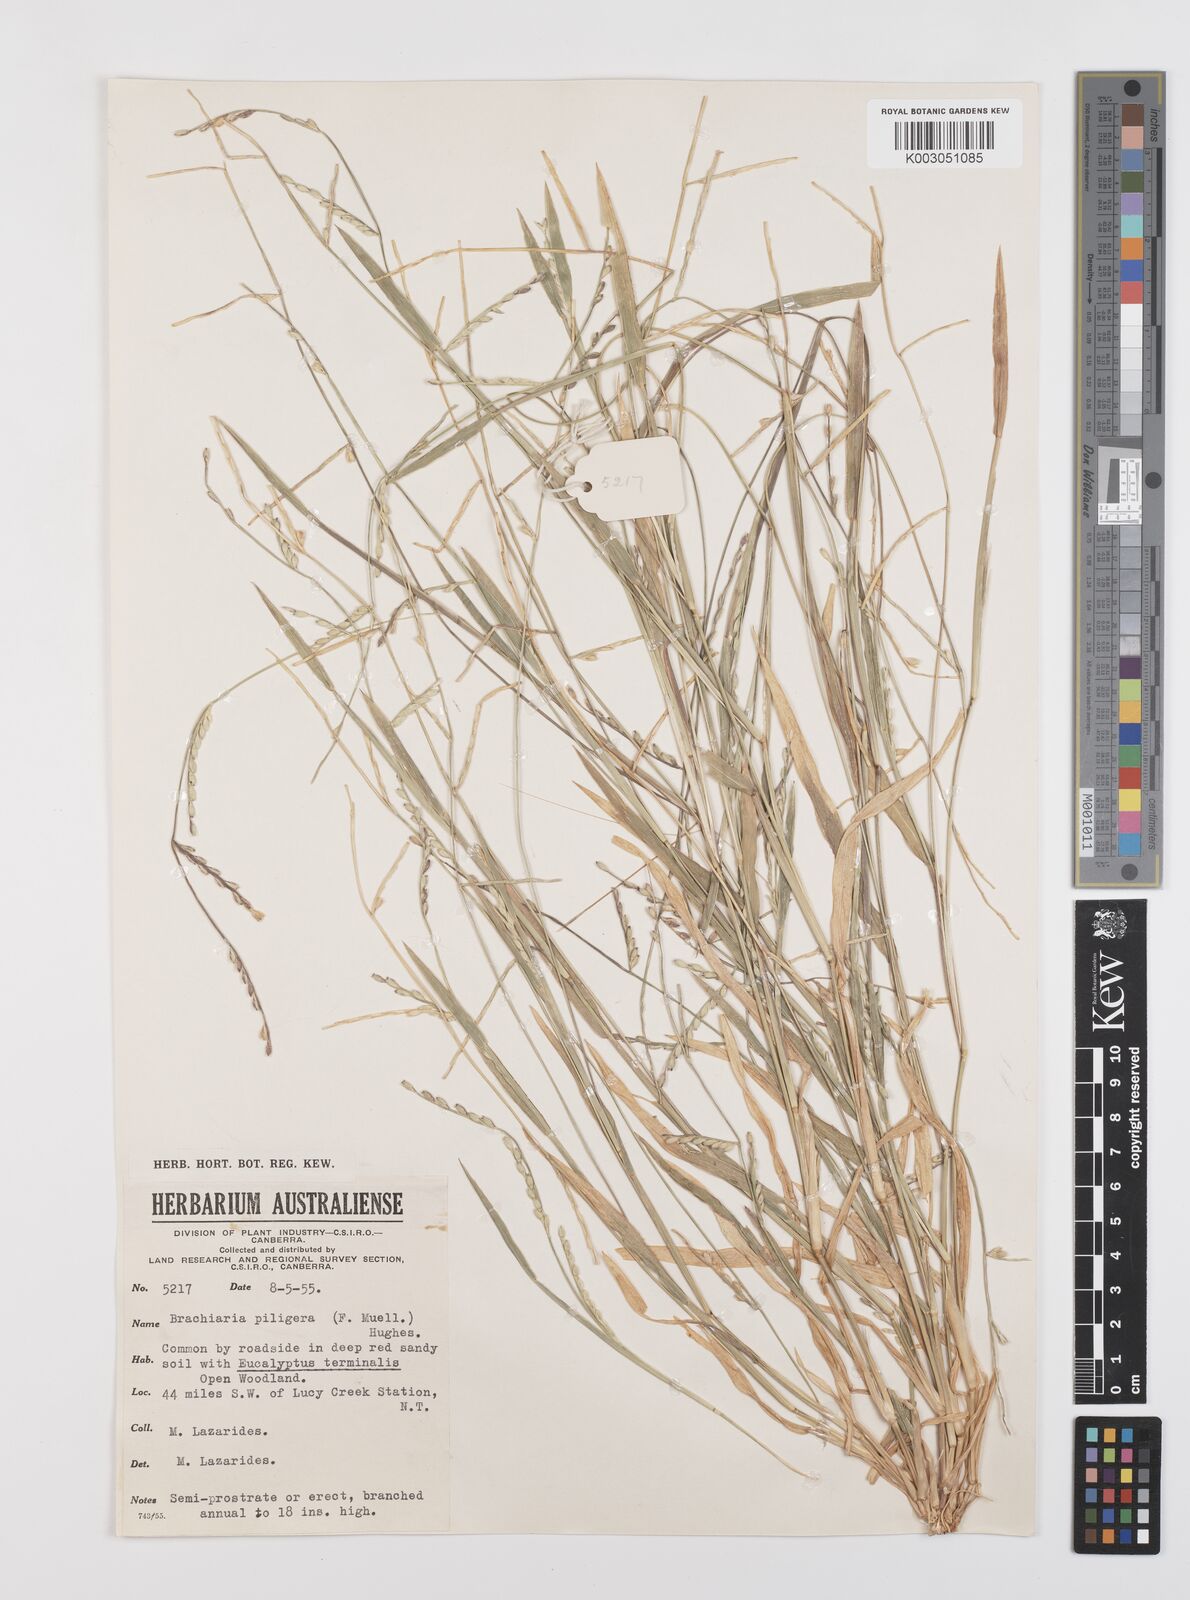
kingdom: Plantae
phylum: Tracheophyta
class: Liliopsida
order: Poales
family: Poaceae
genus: Urochloa
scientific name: Urochloa piligera
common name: Wattle signalgrass
